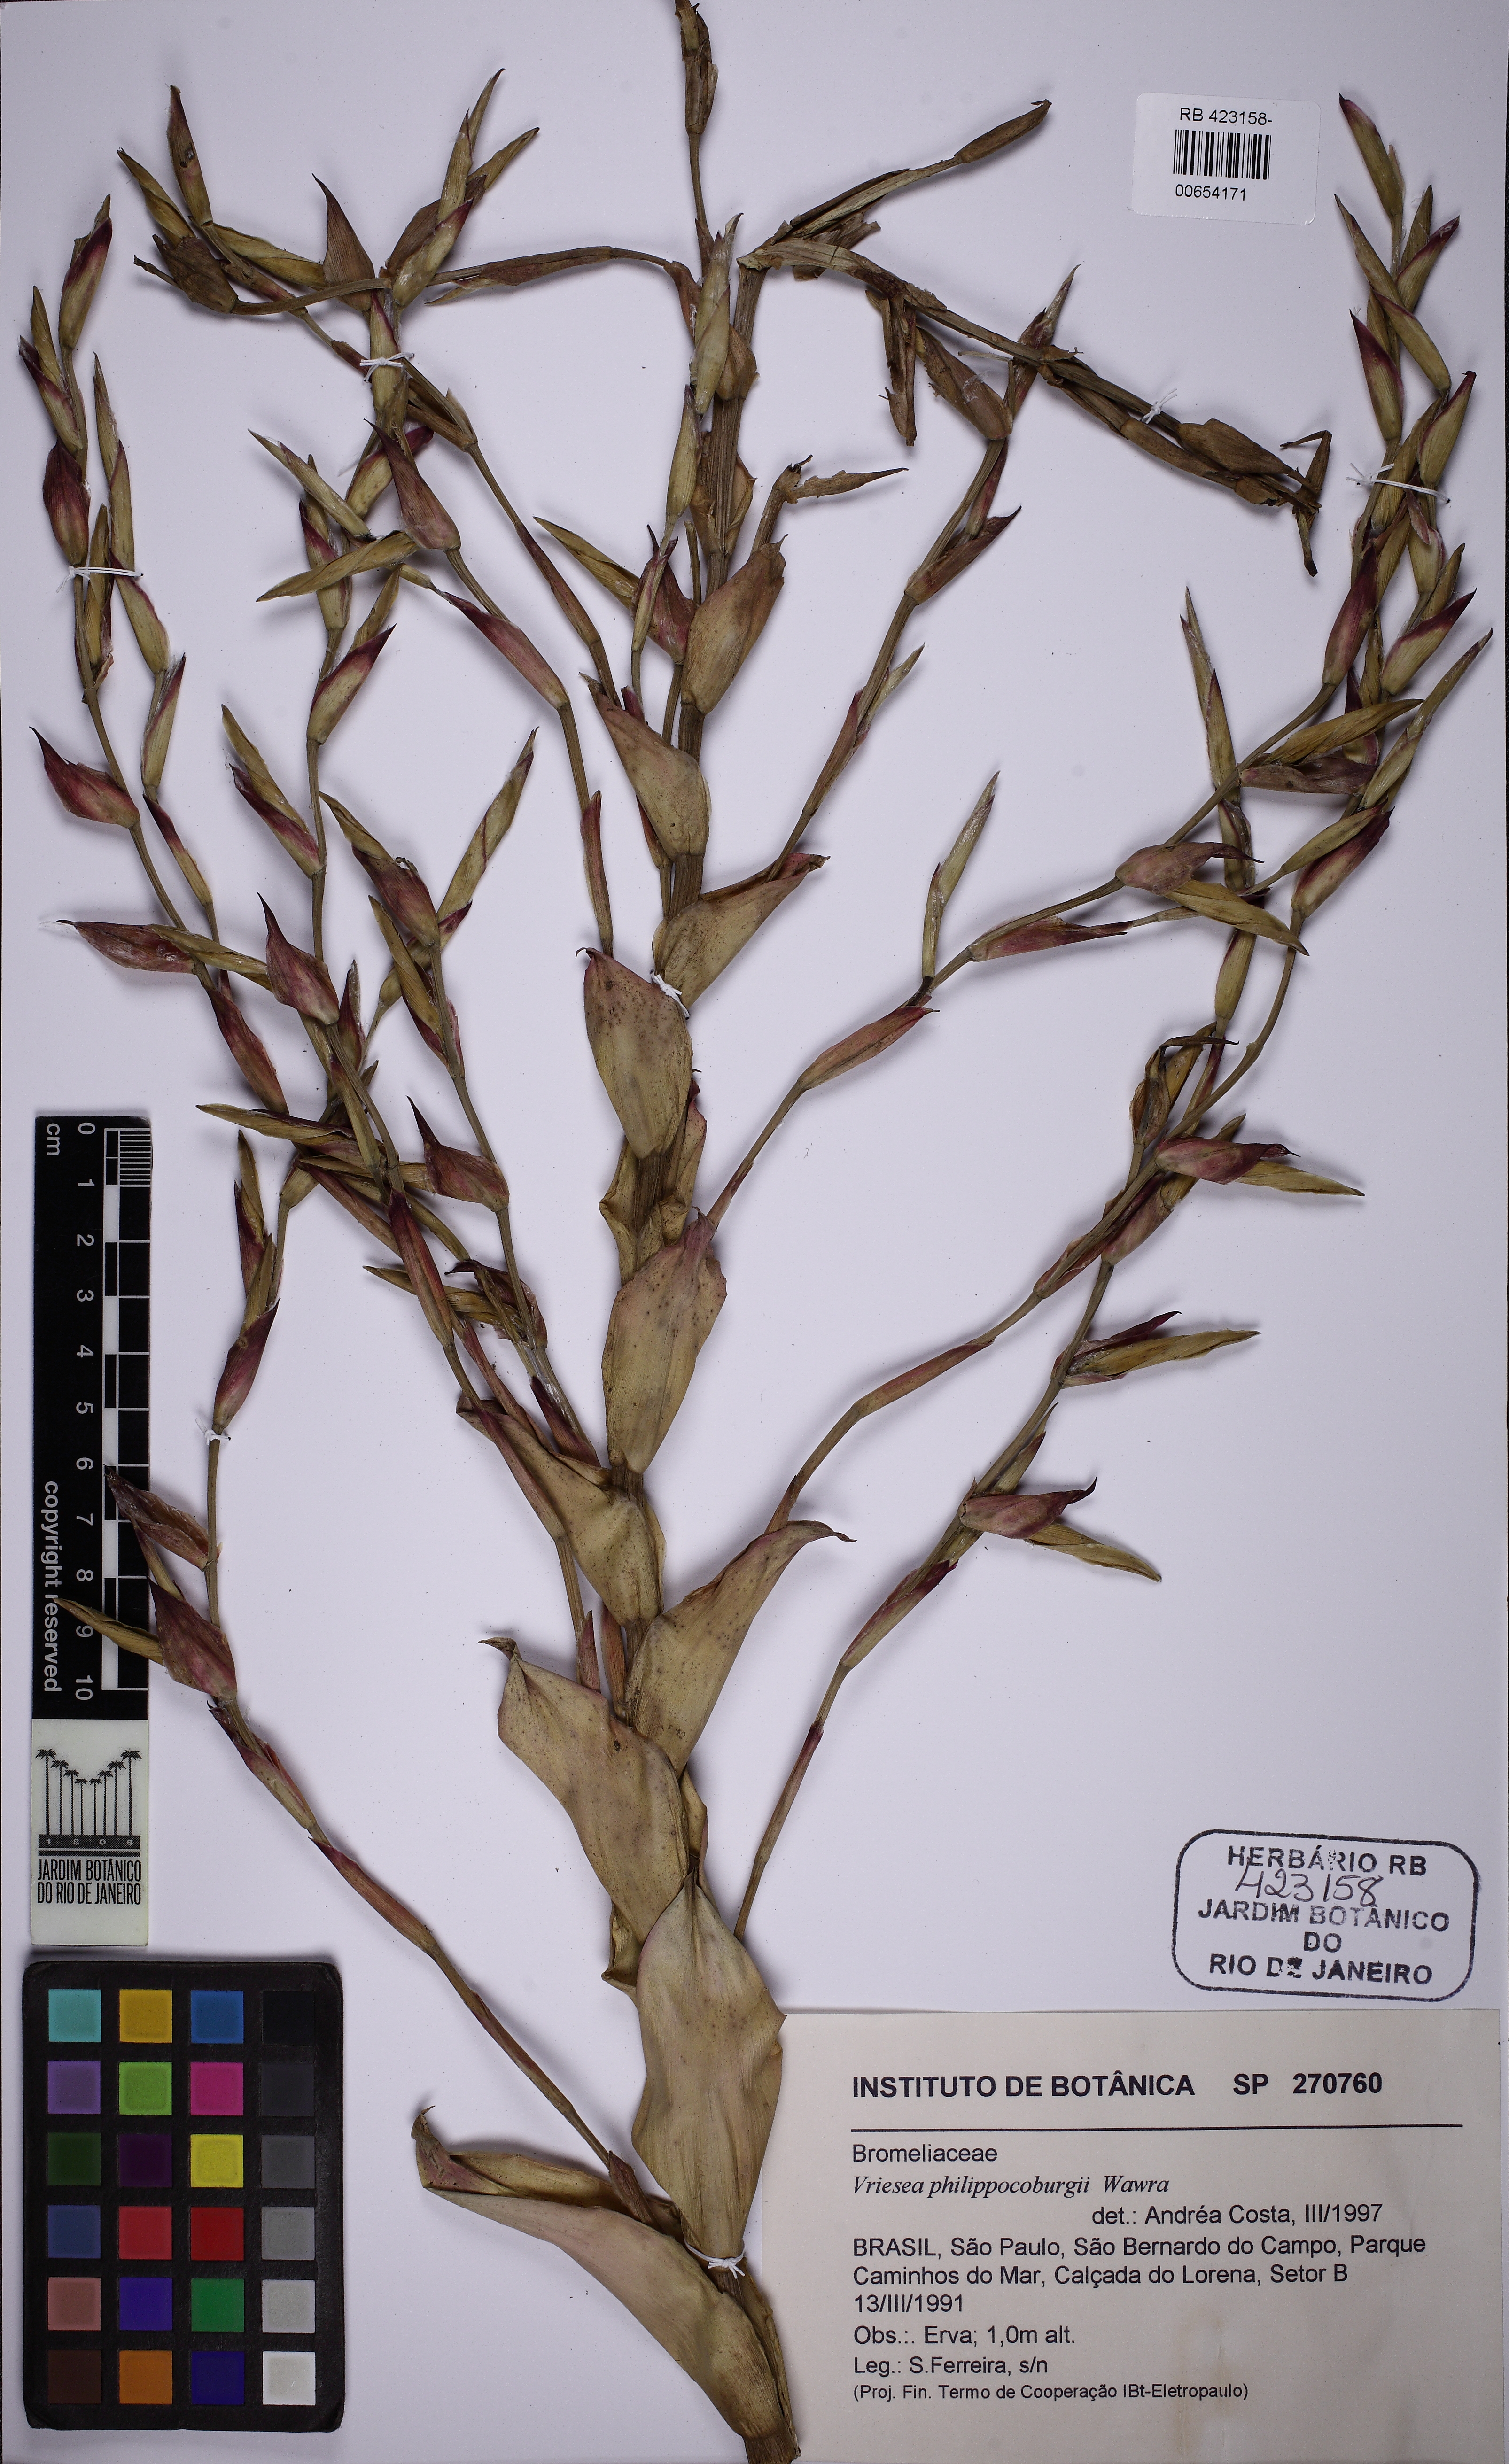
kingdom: Plantae
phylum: Tracheophyta
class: Liliopsida
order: Poales
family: Bromeliaceae
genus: Vriesea
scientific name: Vriesea philippocoburgi
